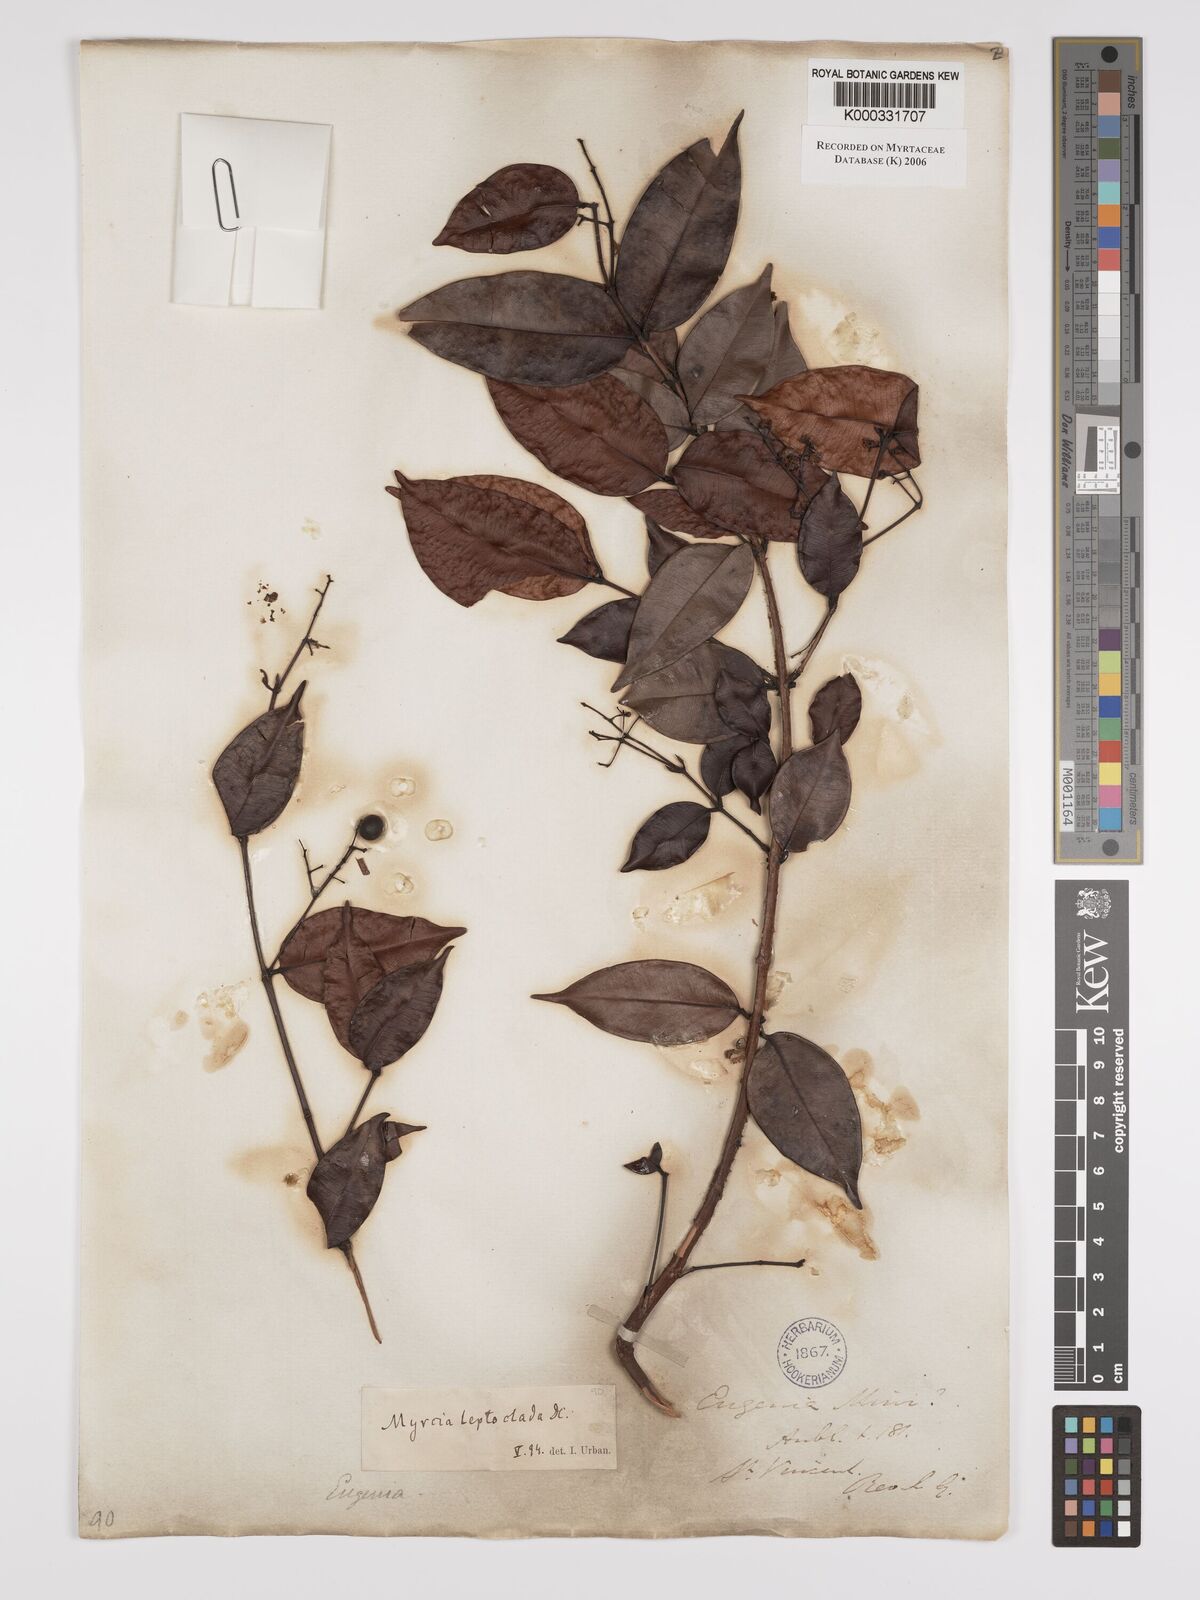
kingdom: Plantae
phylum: Tracheophyta
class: Magnoliopsida
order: Myrtales
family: Myrtaceae
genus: Myrcia
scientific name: Myrcia amazonica
